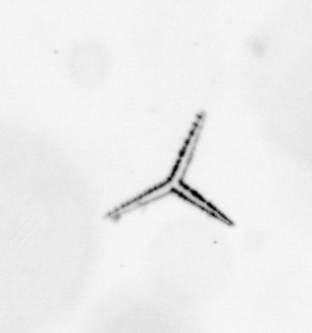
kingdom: Chromista
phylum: Ochrophyta
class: Bacillariophyceae
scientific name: Bacillariophyceae
